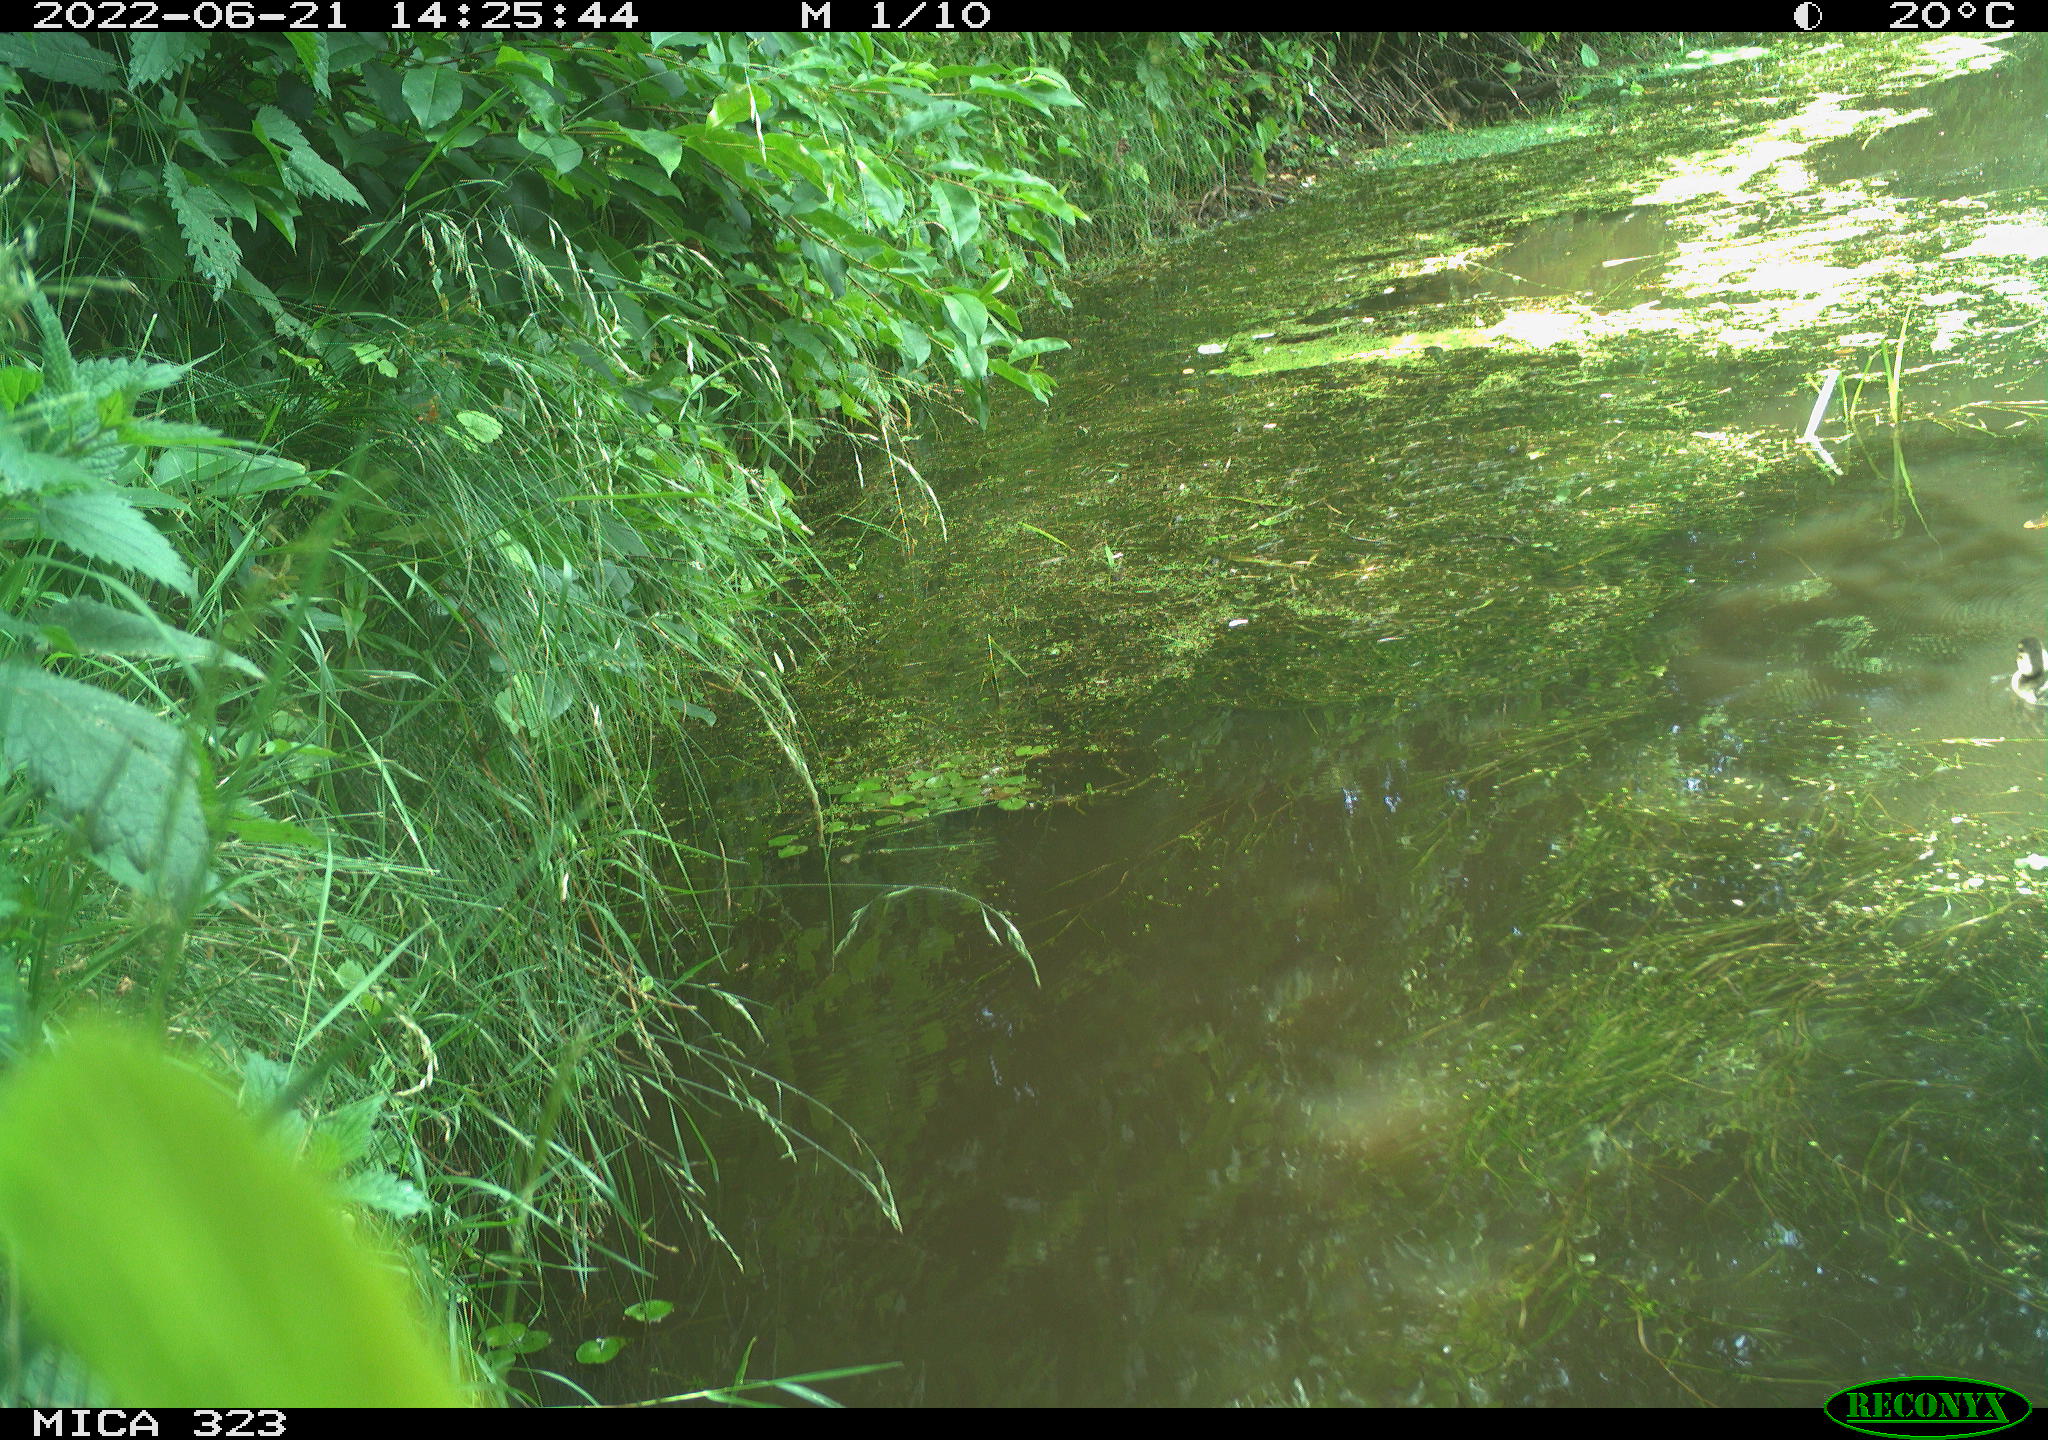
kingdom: Animalia
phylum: Chordata
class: Aves
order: Anseriformes
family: Anatidae
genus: Anas
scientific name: Anas platyrhynchos
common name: Mallard
